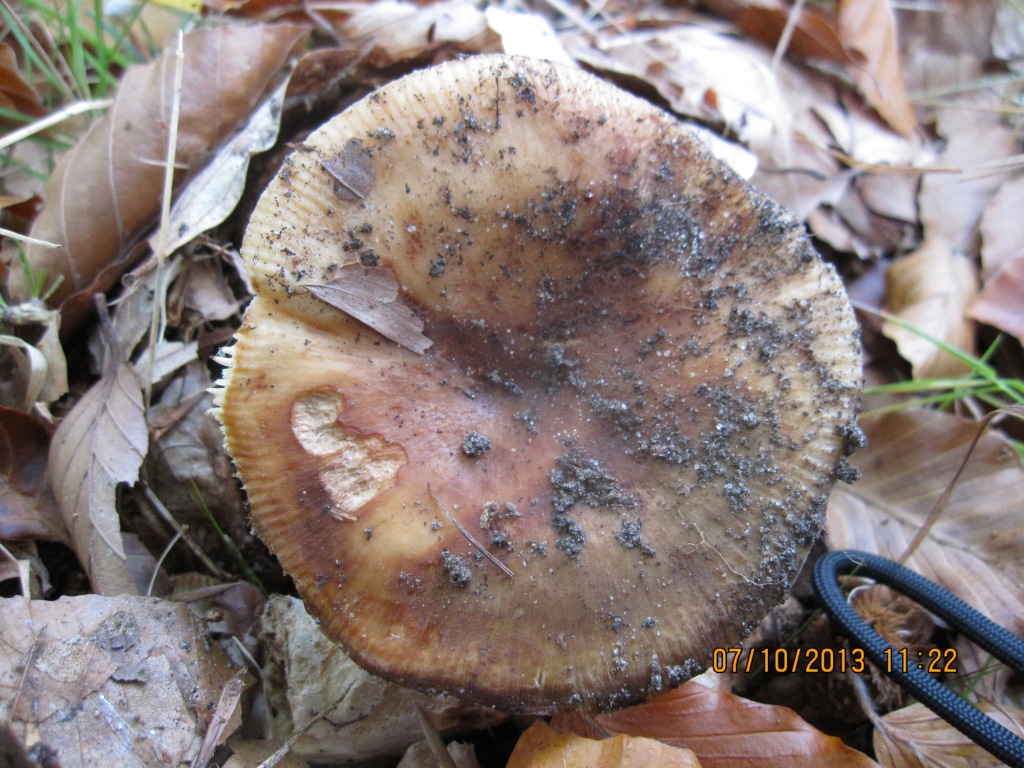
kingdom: Fungi
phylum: Basidiomycota
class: Agaricomycetes
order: Russulales
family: Russulaceae
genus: Russula
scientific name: Russula grata
